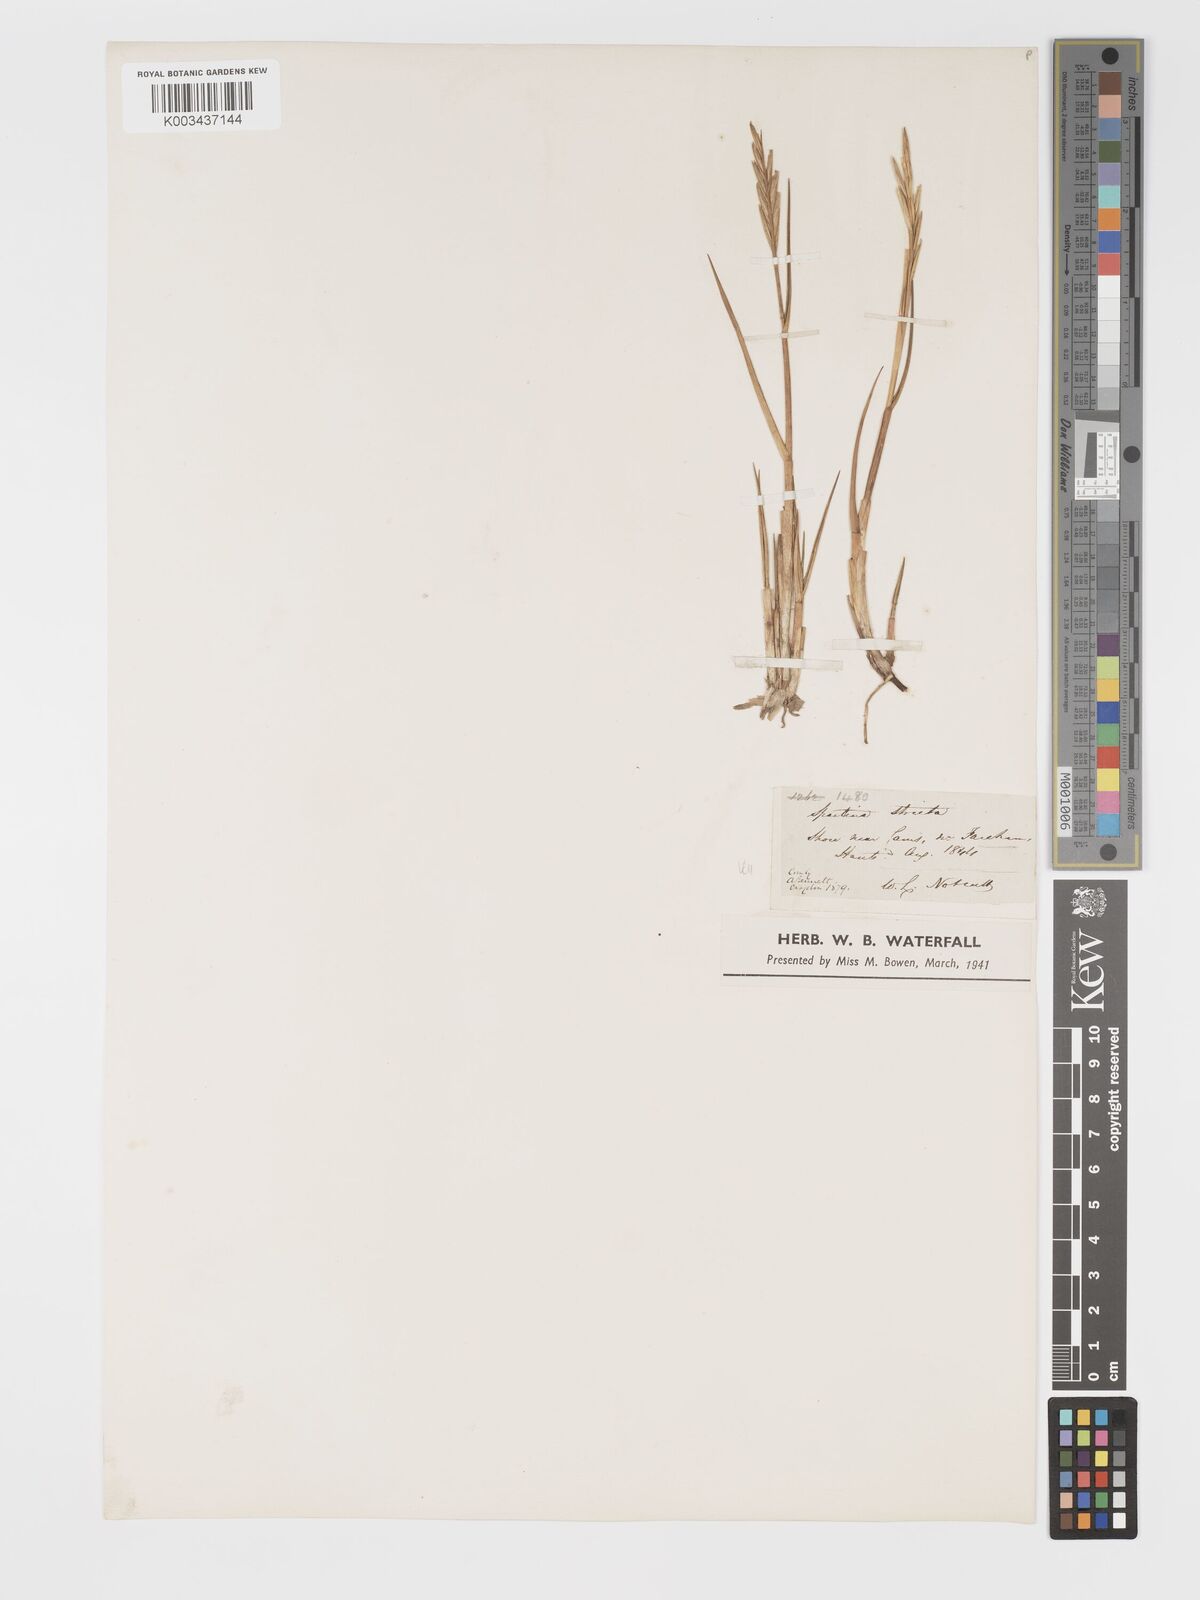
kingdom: Plantae
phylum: Tracheophyta
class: Liliopsida
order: Poales
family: Poaceae
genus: Sporobolus
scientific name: Sporobolus maritimus
